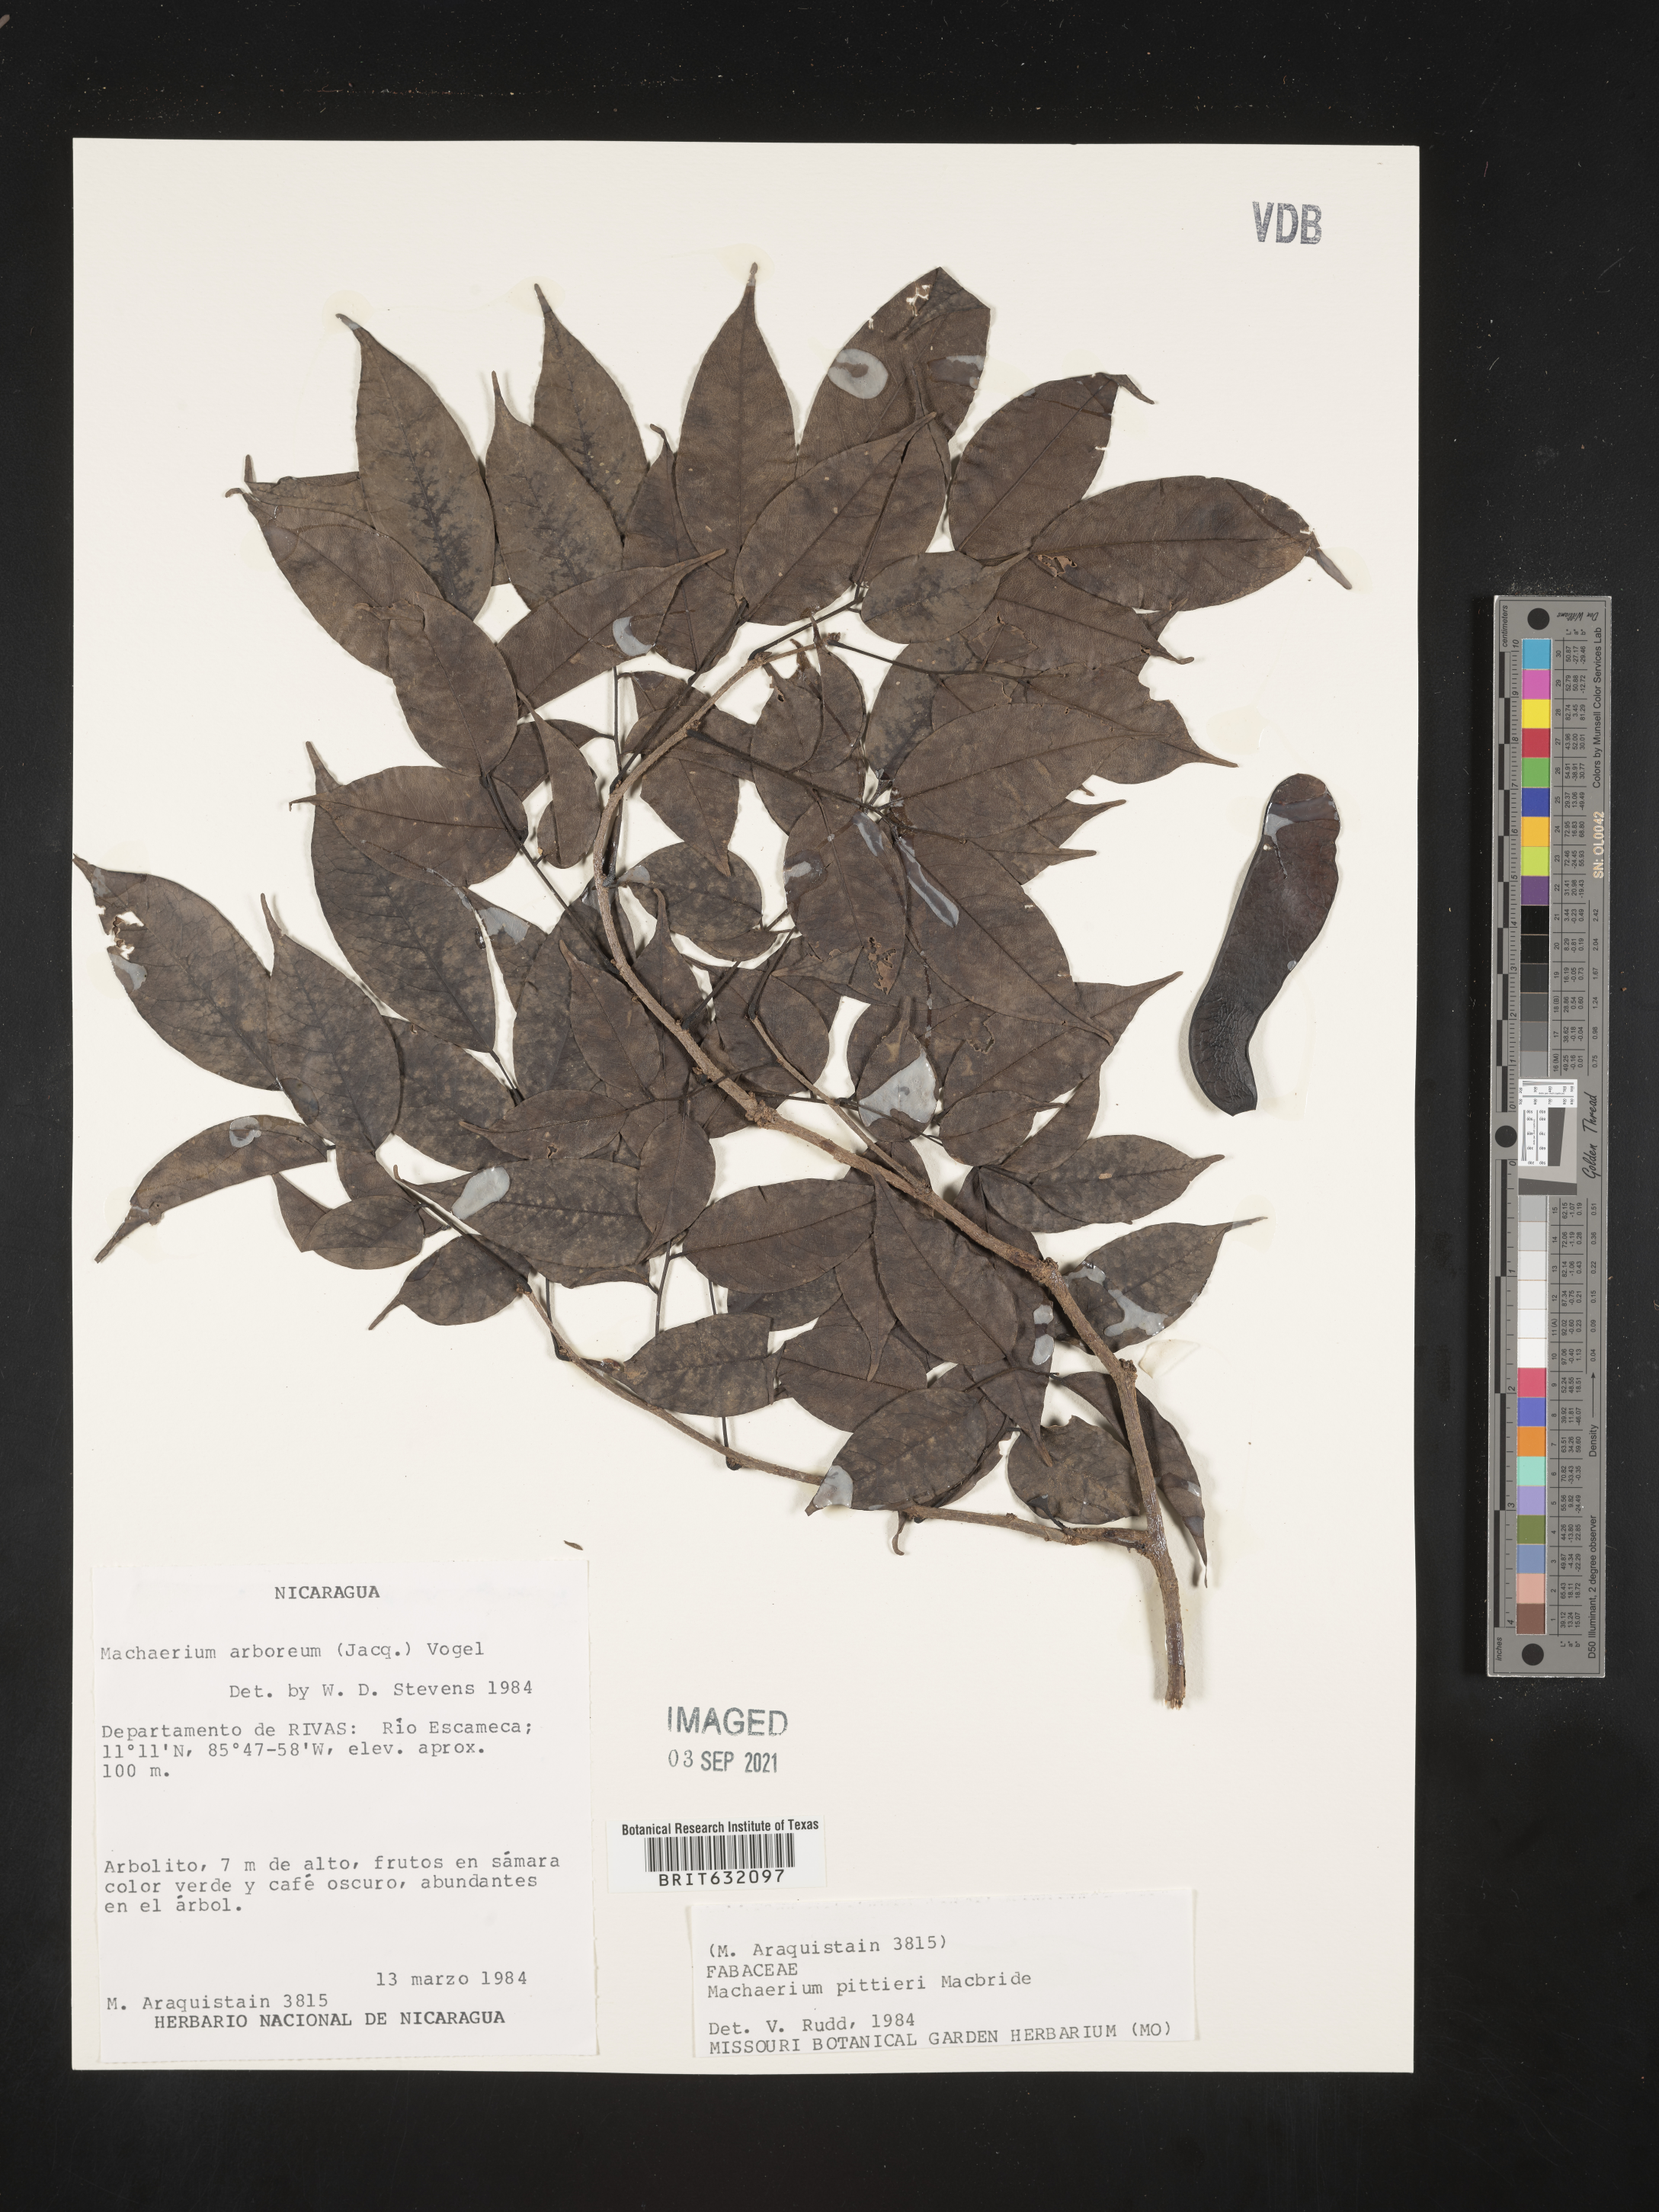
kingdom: Plantae
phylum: Tracheophyta
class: Magnoliopsida
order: Fabales
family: Fabaceae
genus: Machaerium
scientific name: Machaerium
